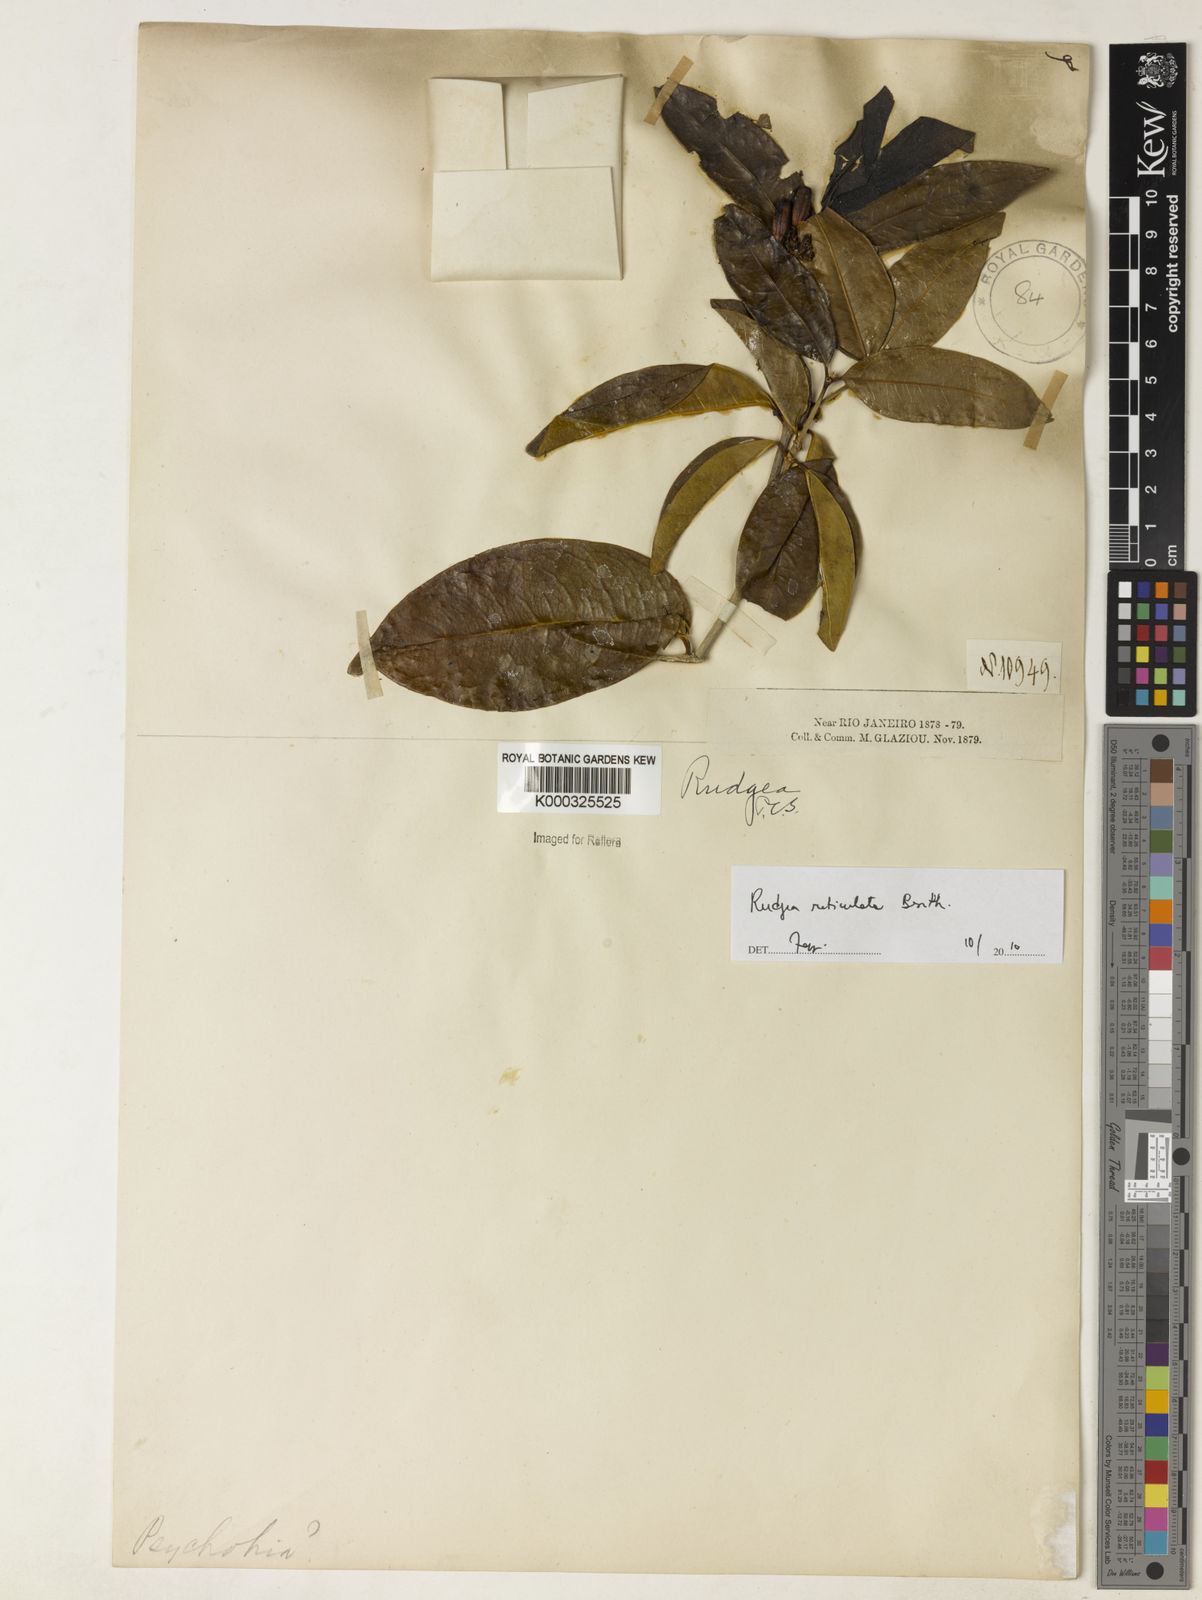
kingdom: Plantae
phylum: Tracheophyta
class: Magnoliopsida
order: Gentianales
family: Rubiaceae
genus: Rudgea
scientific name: Rudgea reticulata
